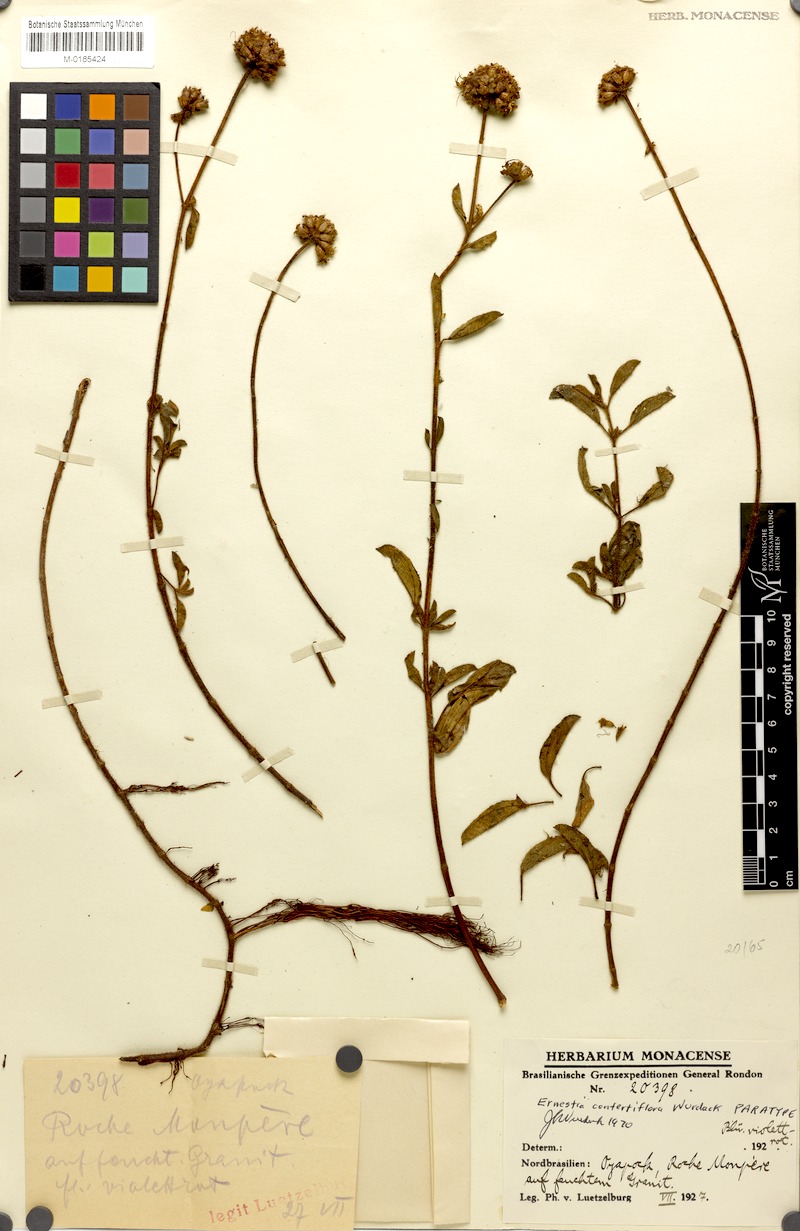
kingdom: Plantae
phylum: Tracheophyta
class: Magnoliopsida
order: Myrtales
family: Melastomataceae
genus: Ernestia
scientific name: Ernestia confertiflora
